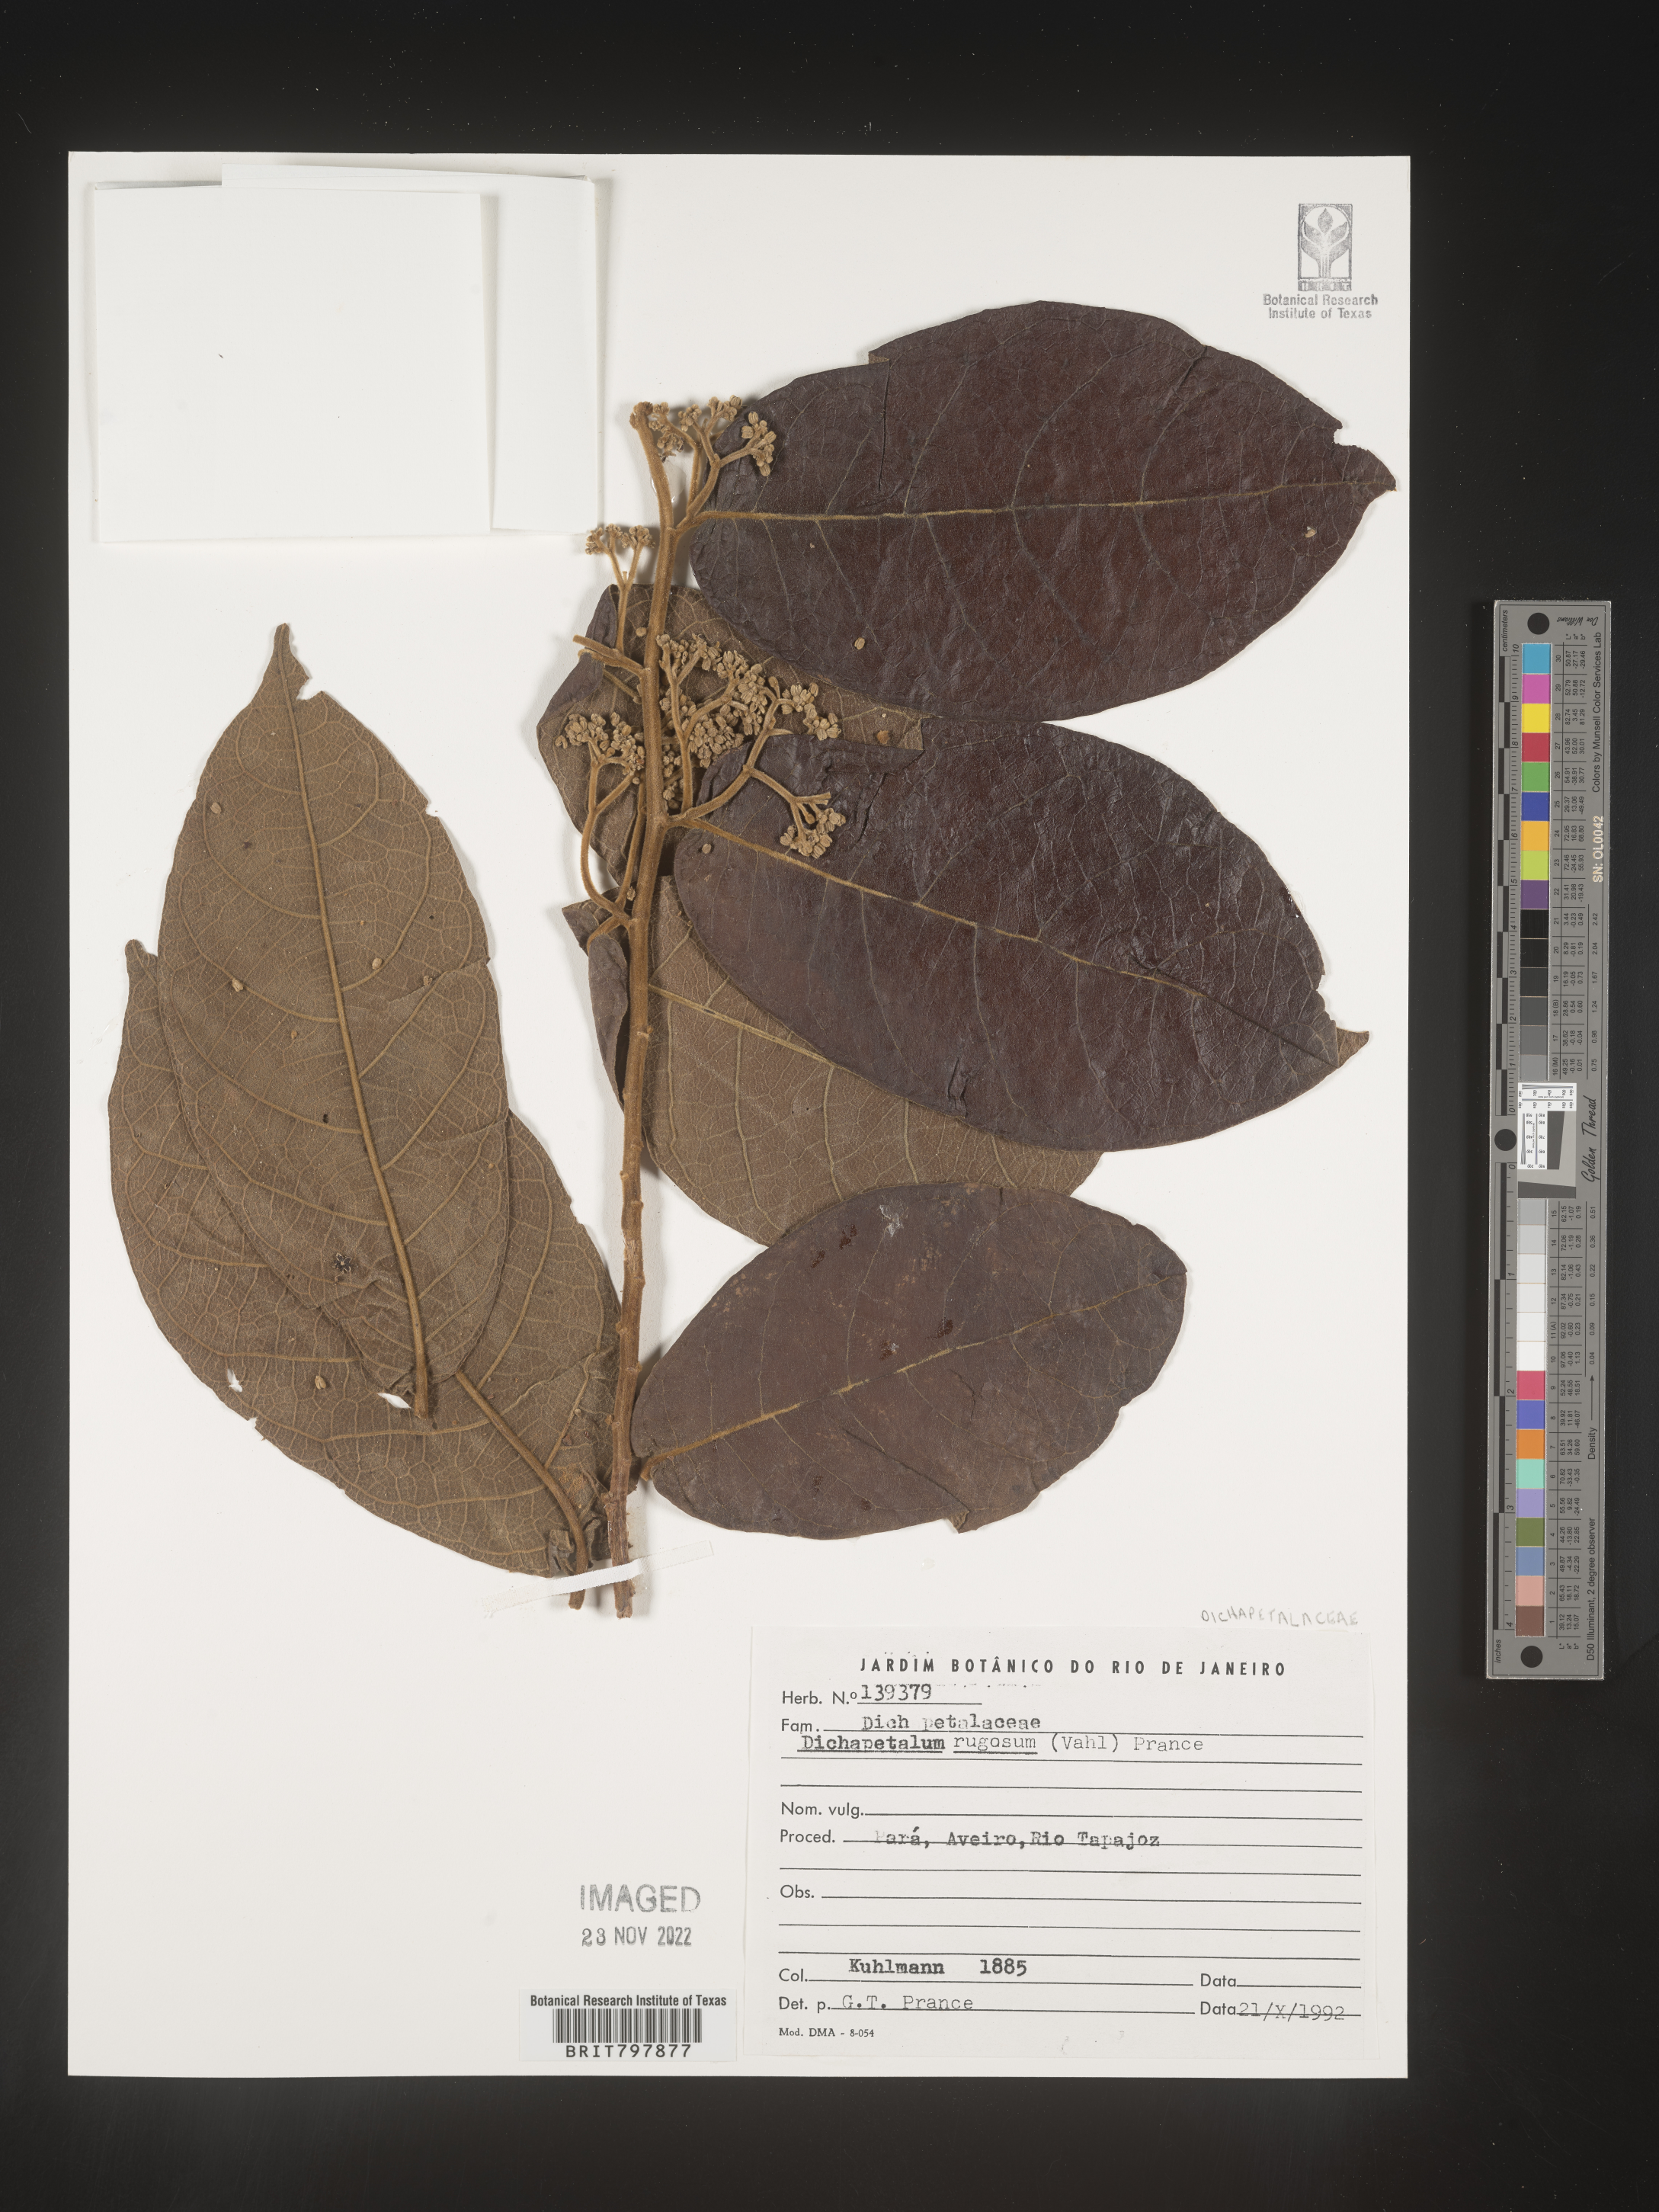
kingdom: Plantae
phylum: Tracheophyta
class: Magnoliopsida
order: Malpighiales
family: Dichapetalaceae
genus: Dichapetalum
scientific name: Dichapetalum
